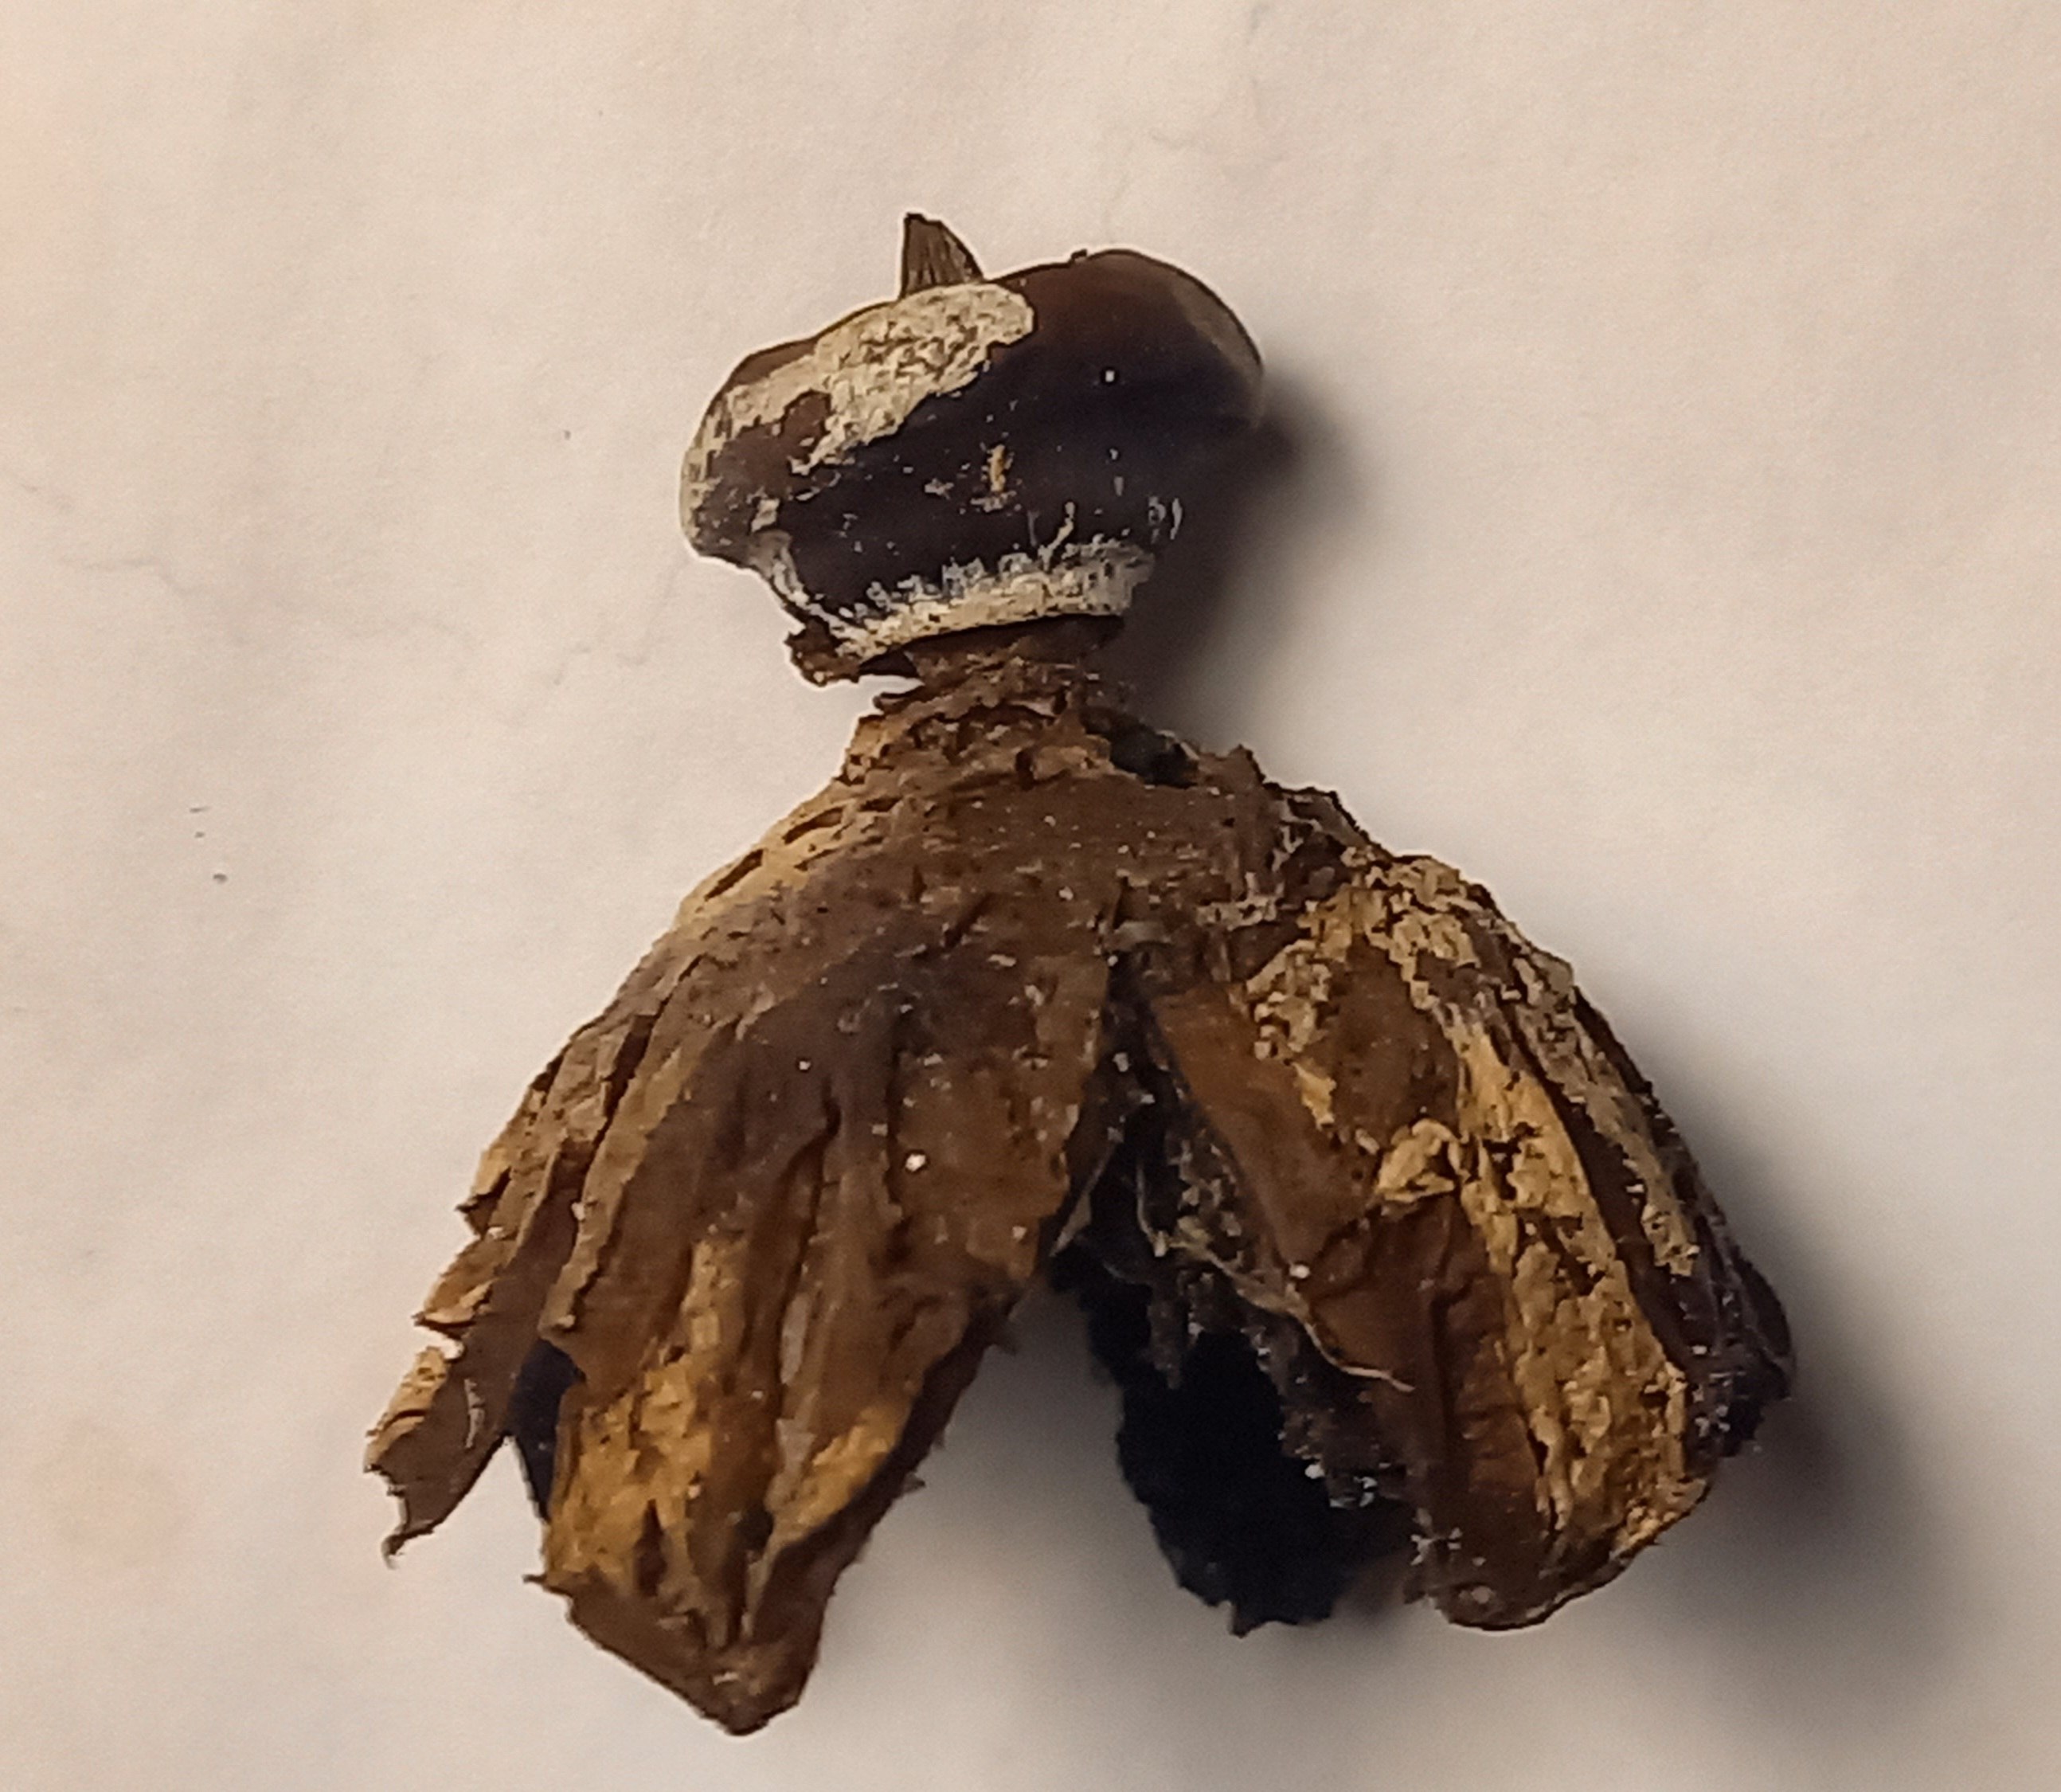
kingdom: Fungi
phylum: Basidiomycota
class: Agaricomycetes
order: Geastrales
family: Geastraceae
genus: Geastrum
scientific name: Geastrum striatum
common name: krave-stjernebold
